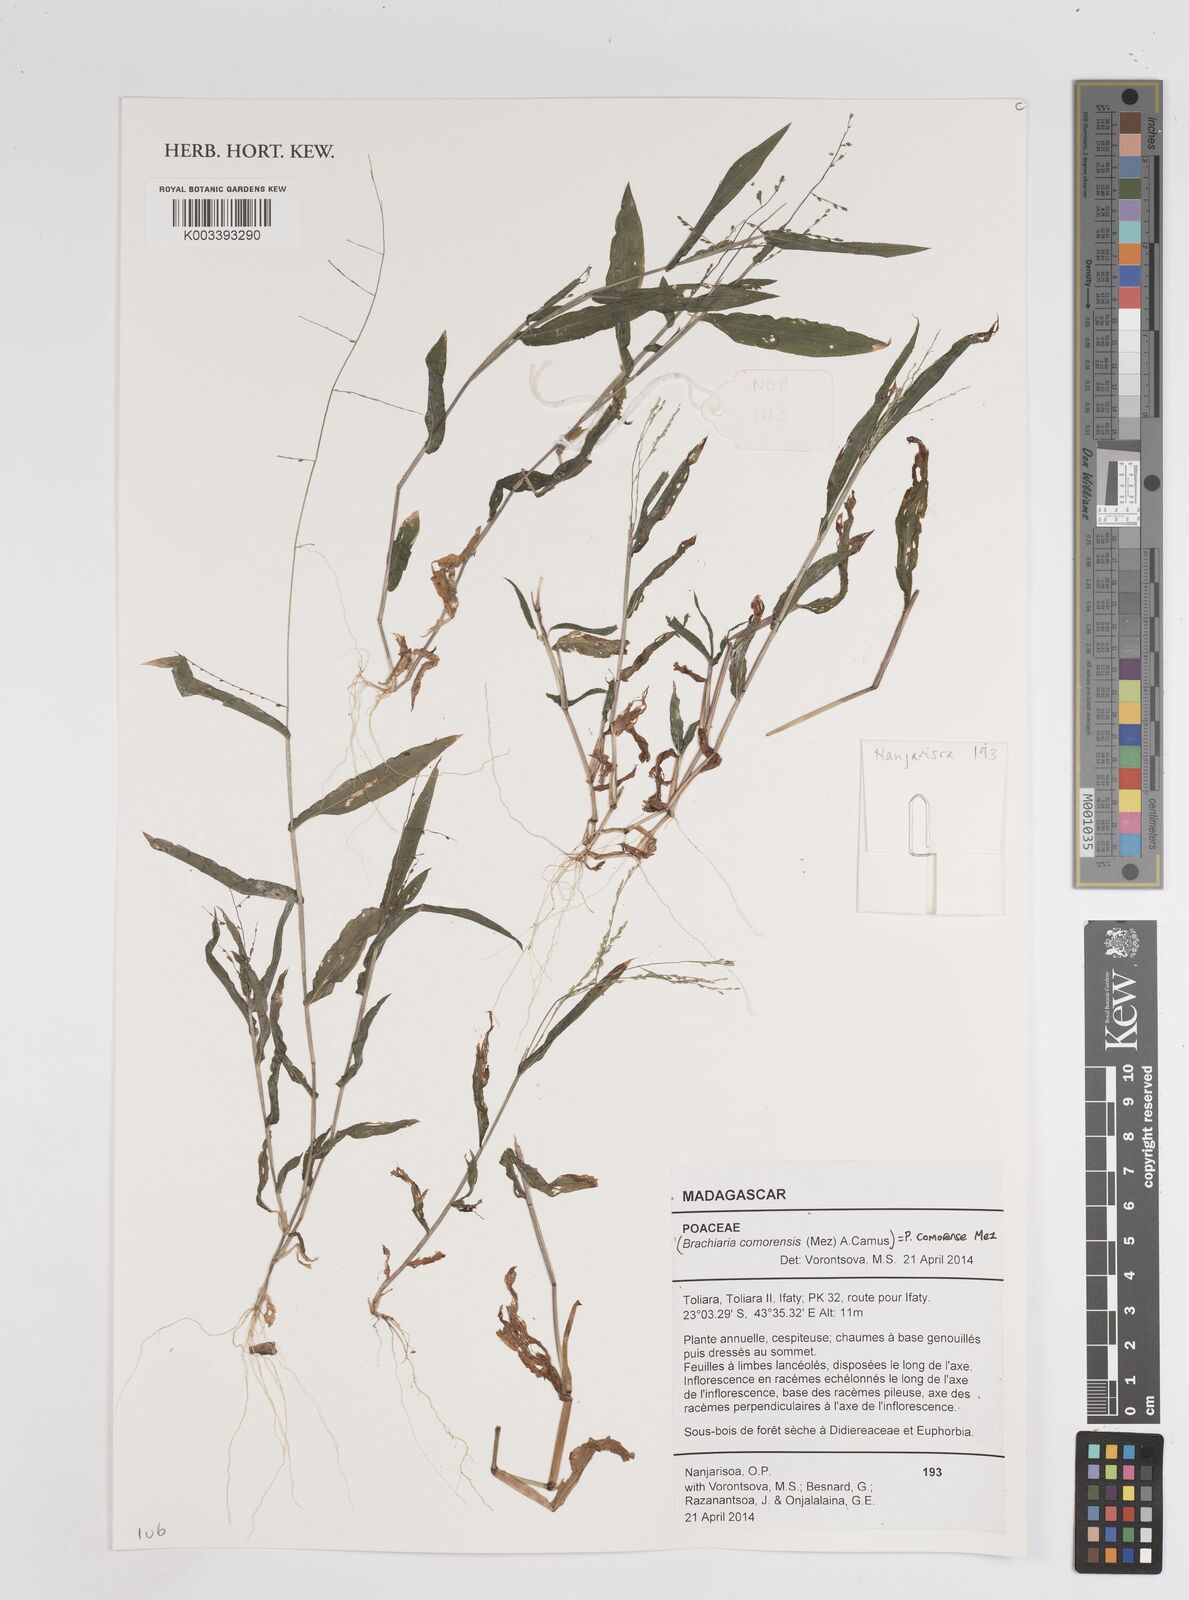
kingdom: Plantae
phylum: Tracheophyta
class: Liliopsida
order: Poales
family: Poaceae
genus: Panicum
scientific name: Panicum comorense
